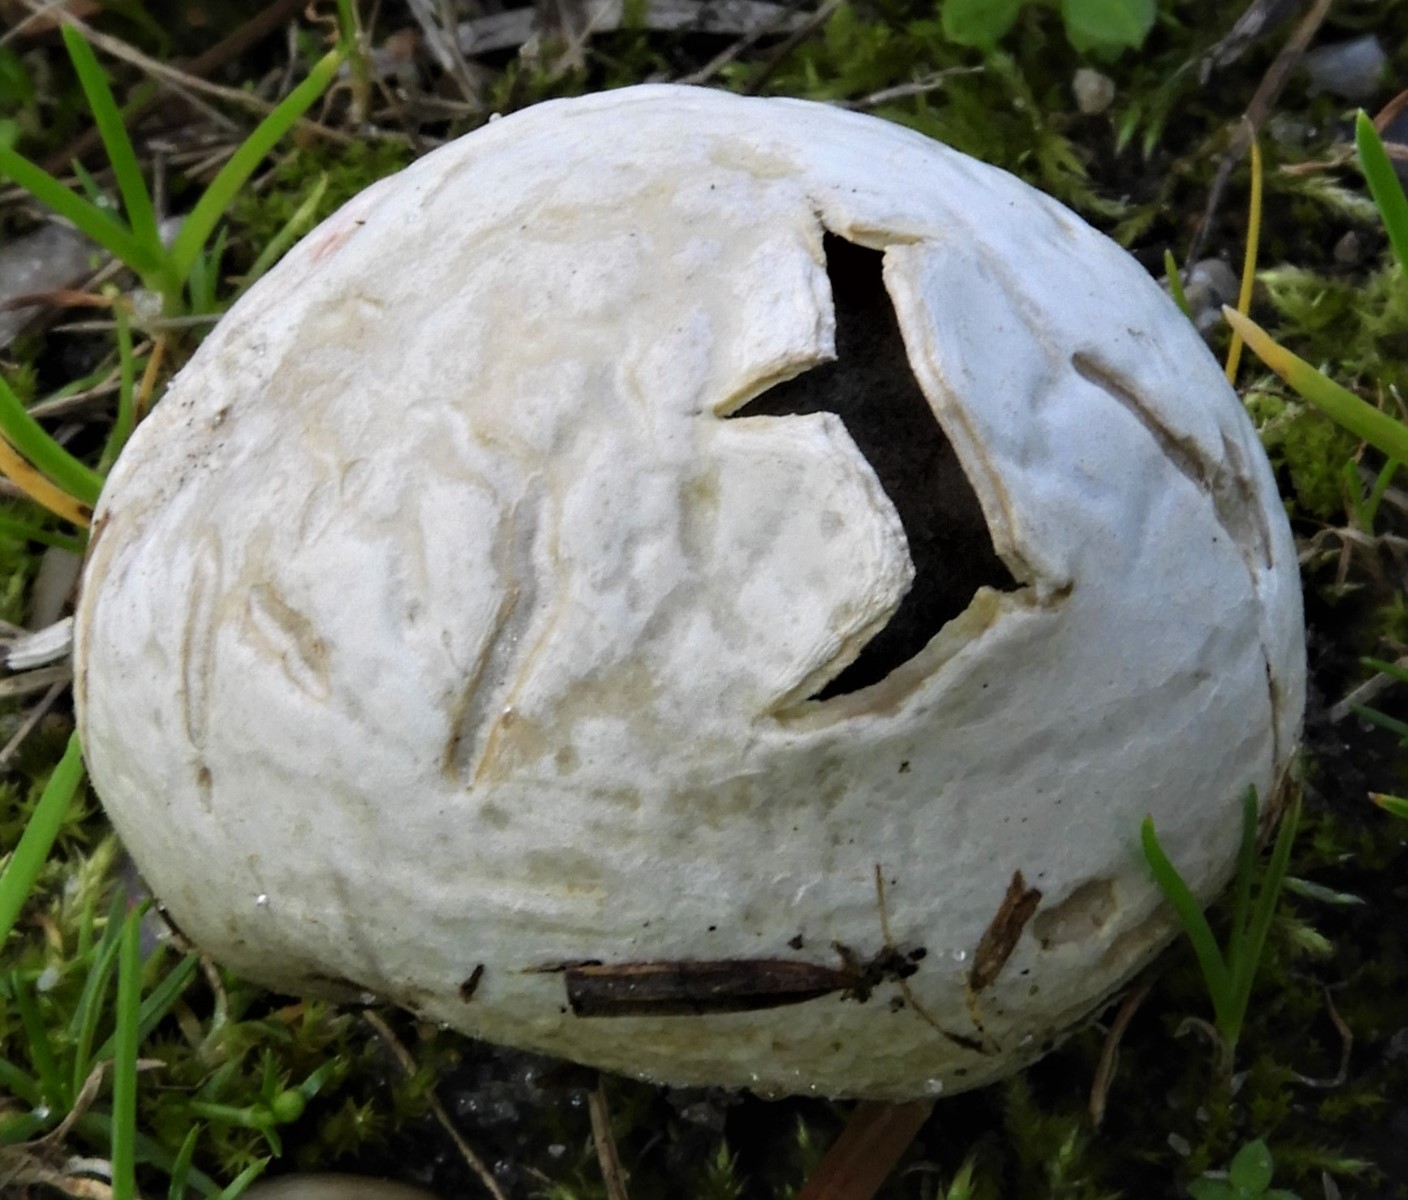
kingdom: Fungi
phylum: Basidiomycota
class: Agaricomycetes
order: Agaricales
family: Lycoperdaceae
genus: Bovista
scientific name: Bovista plumbea
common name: blygrå bovist
